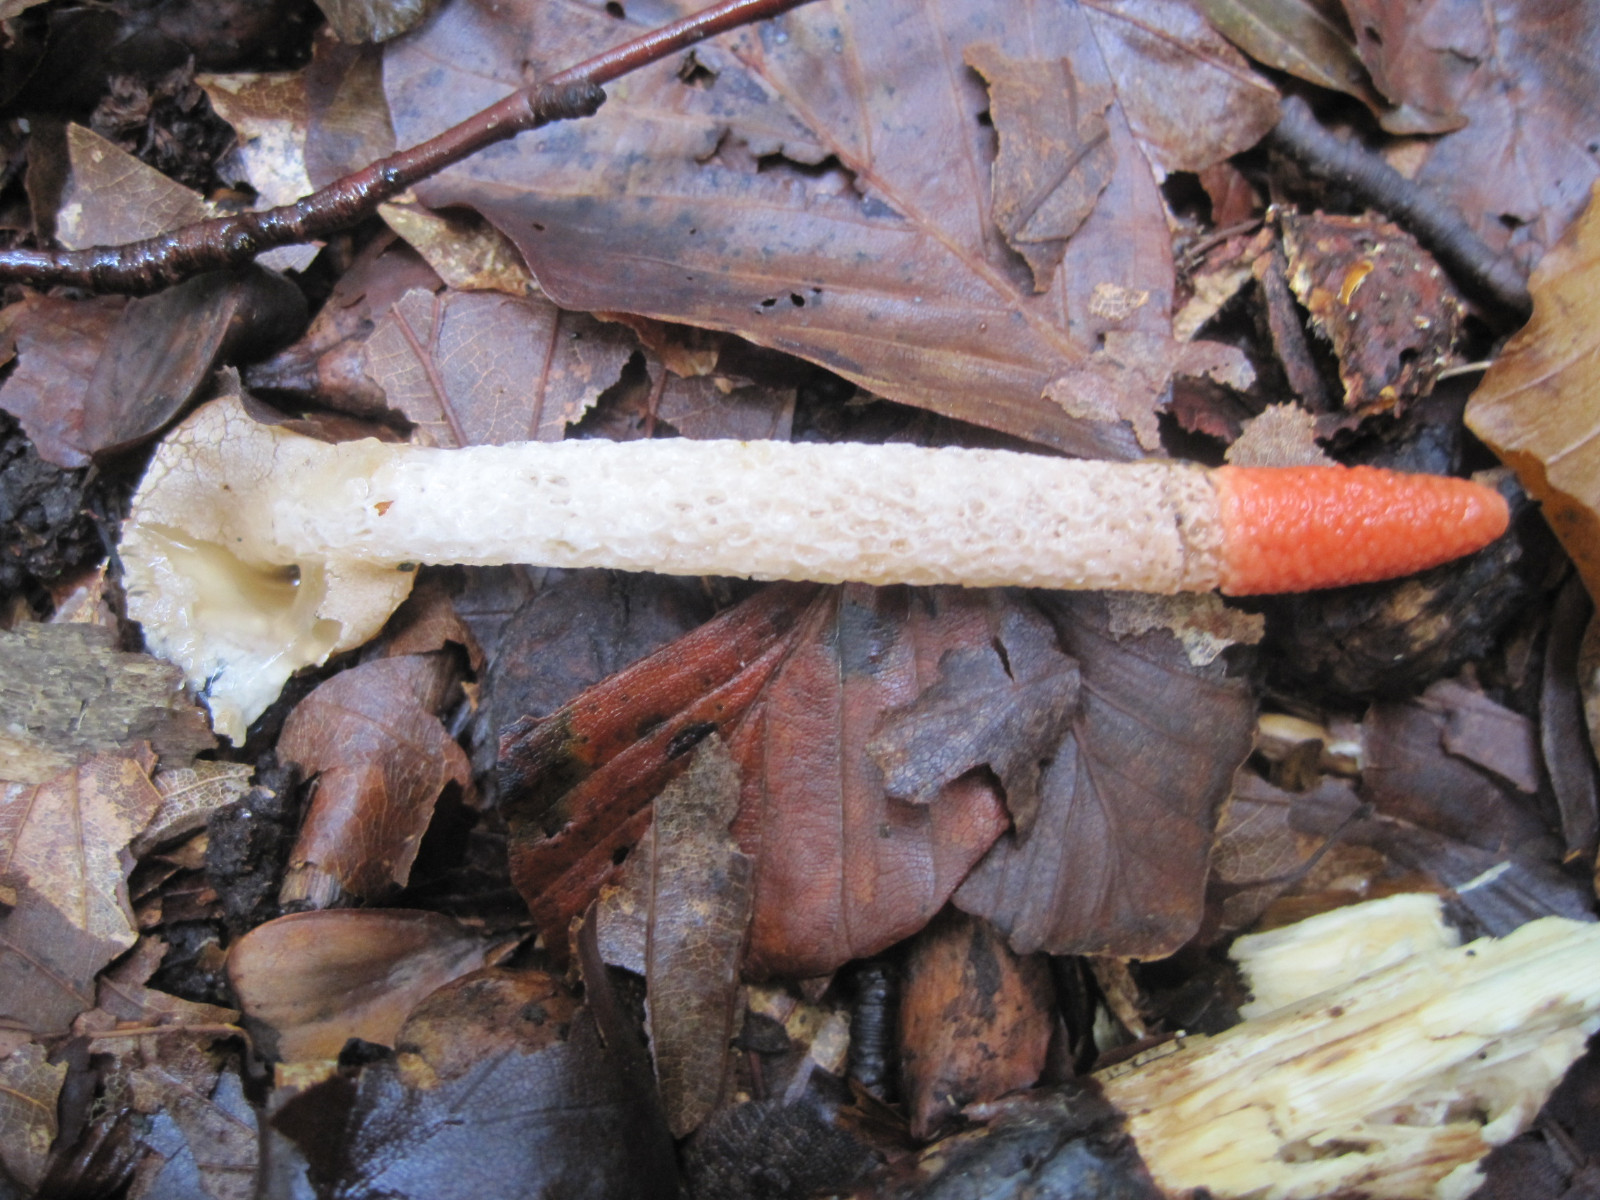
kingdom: Fungi
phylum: Basidiomycota
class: Agaricomycetes
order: Phallales
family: Phallaceae
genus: Mutinus
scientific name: Mutinus caninus
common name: hunde-stinksvamp
